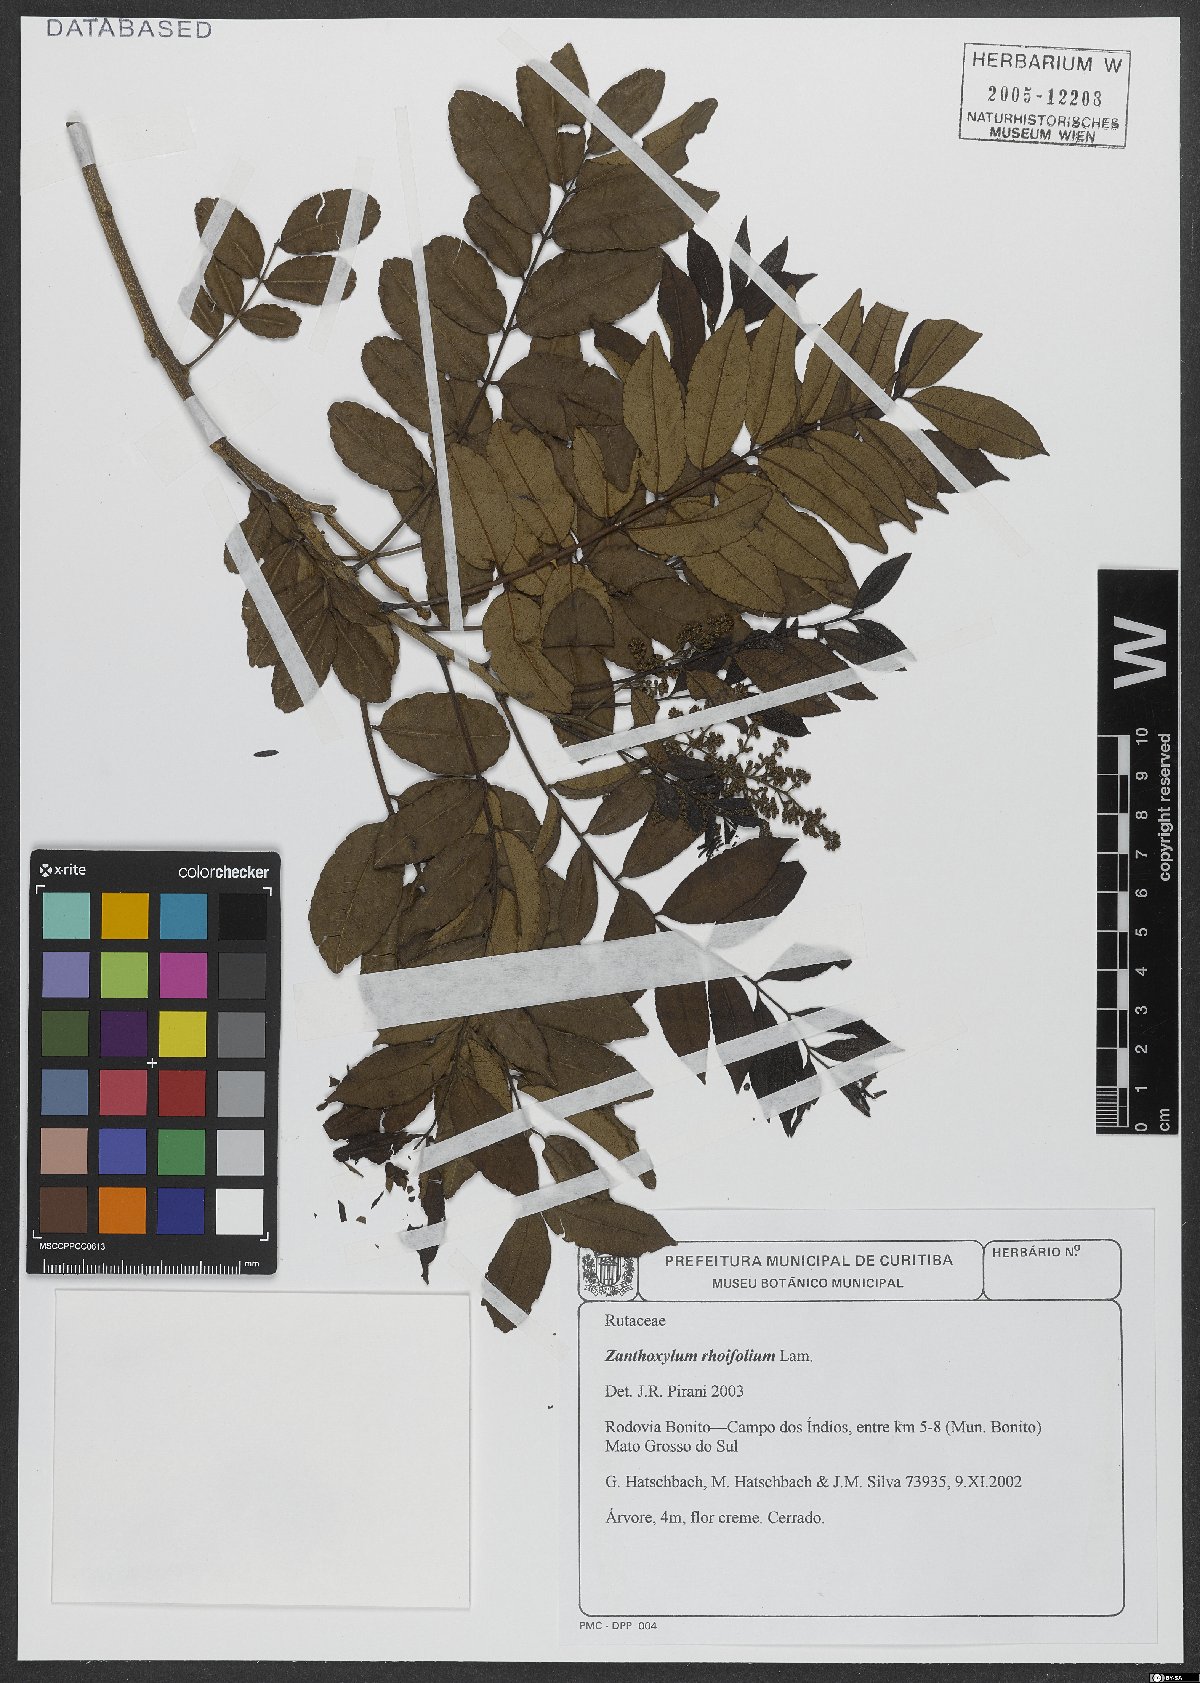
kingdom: Plantae
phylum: Tracheophyta
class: Magnoliopsida
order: Sapindales
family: Rutaceae
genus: Zanthoxylum
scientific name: Zanthoxylum rhoifolium
